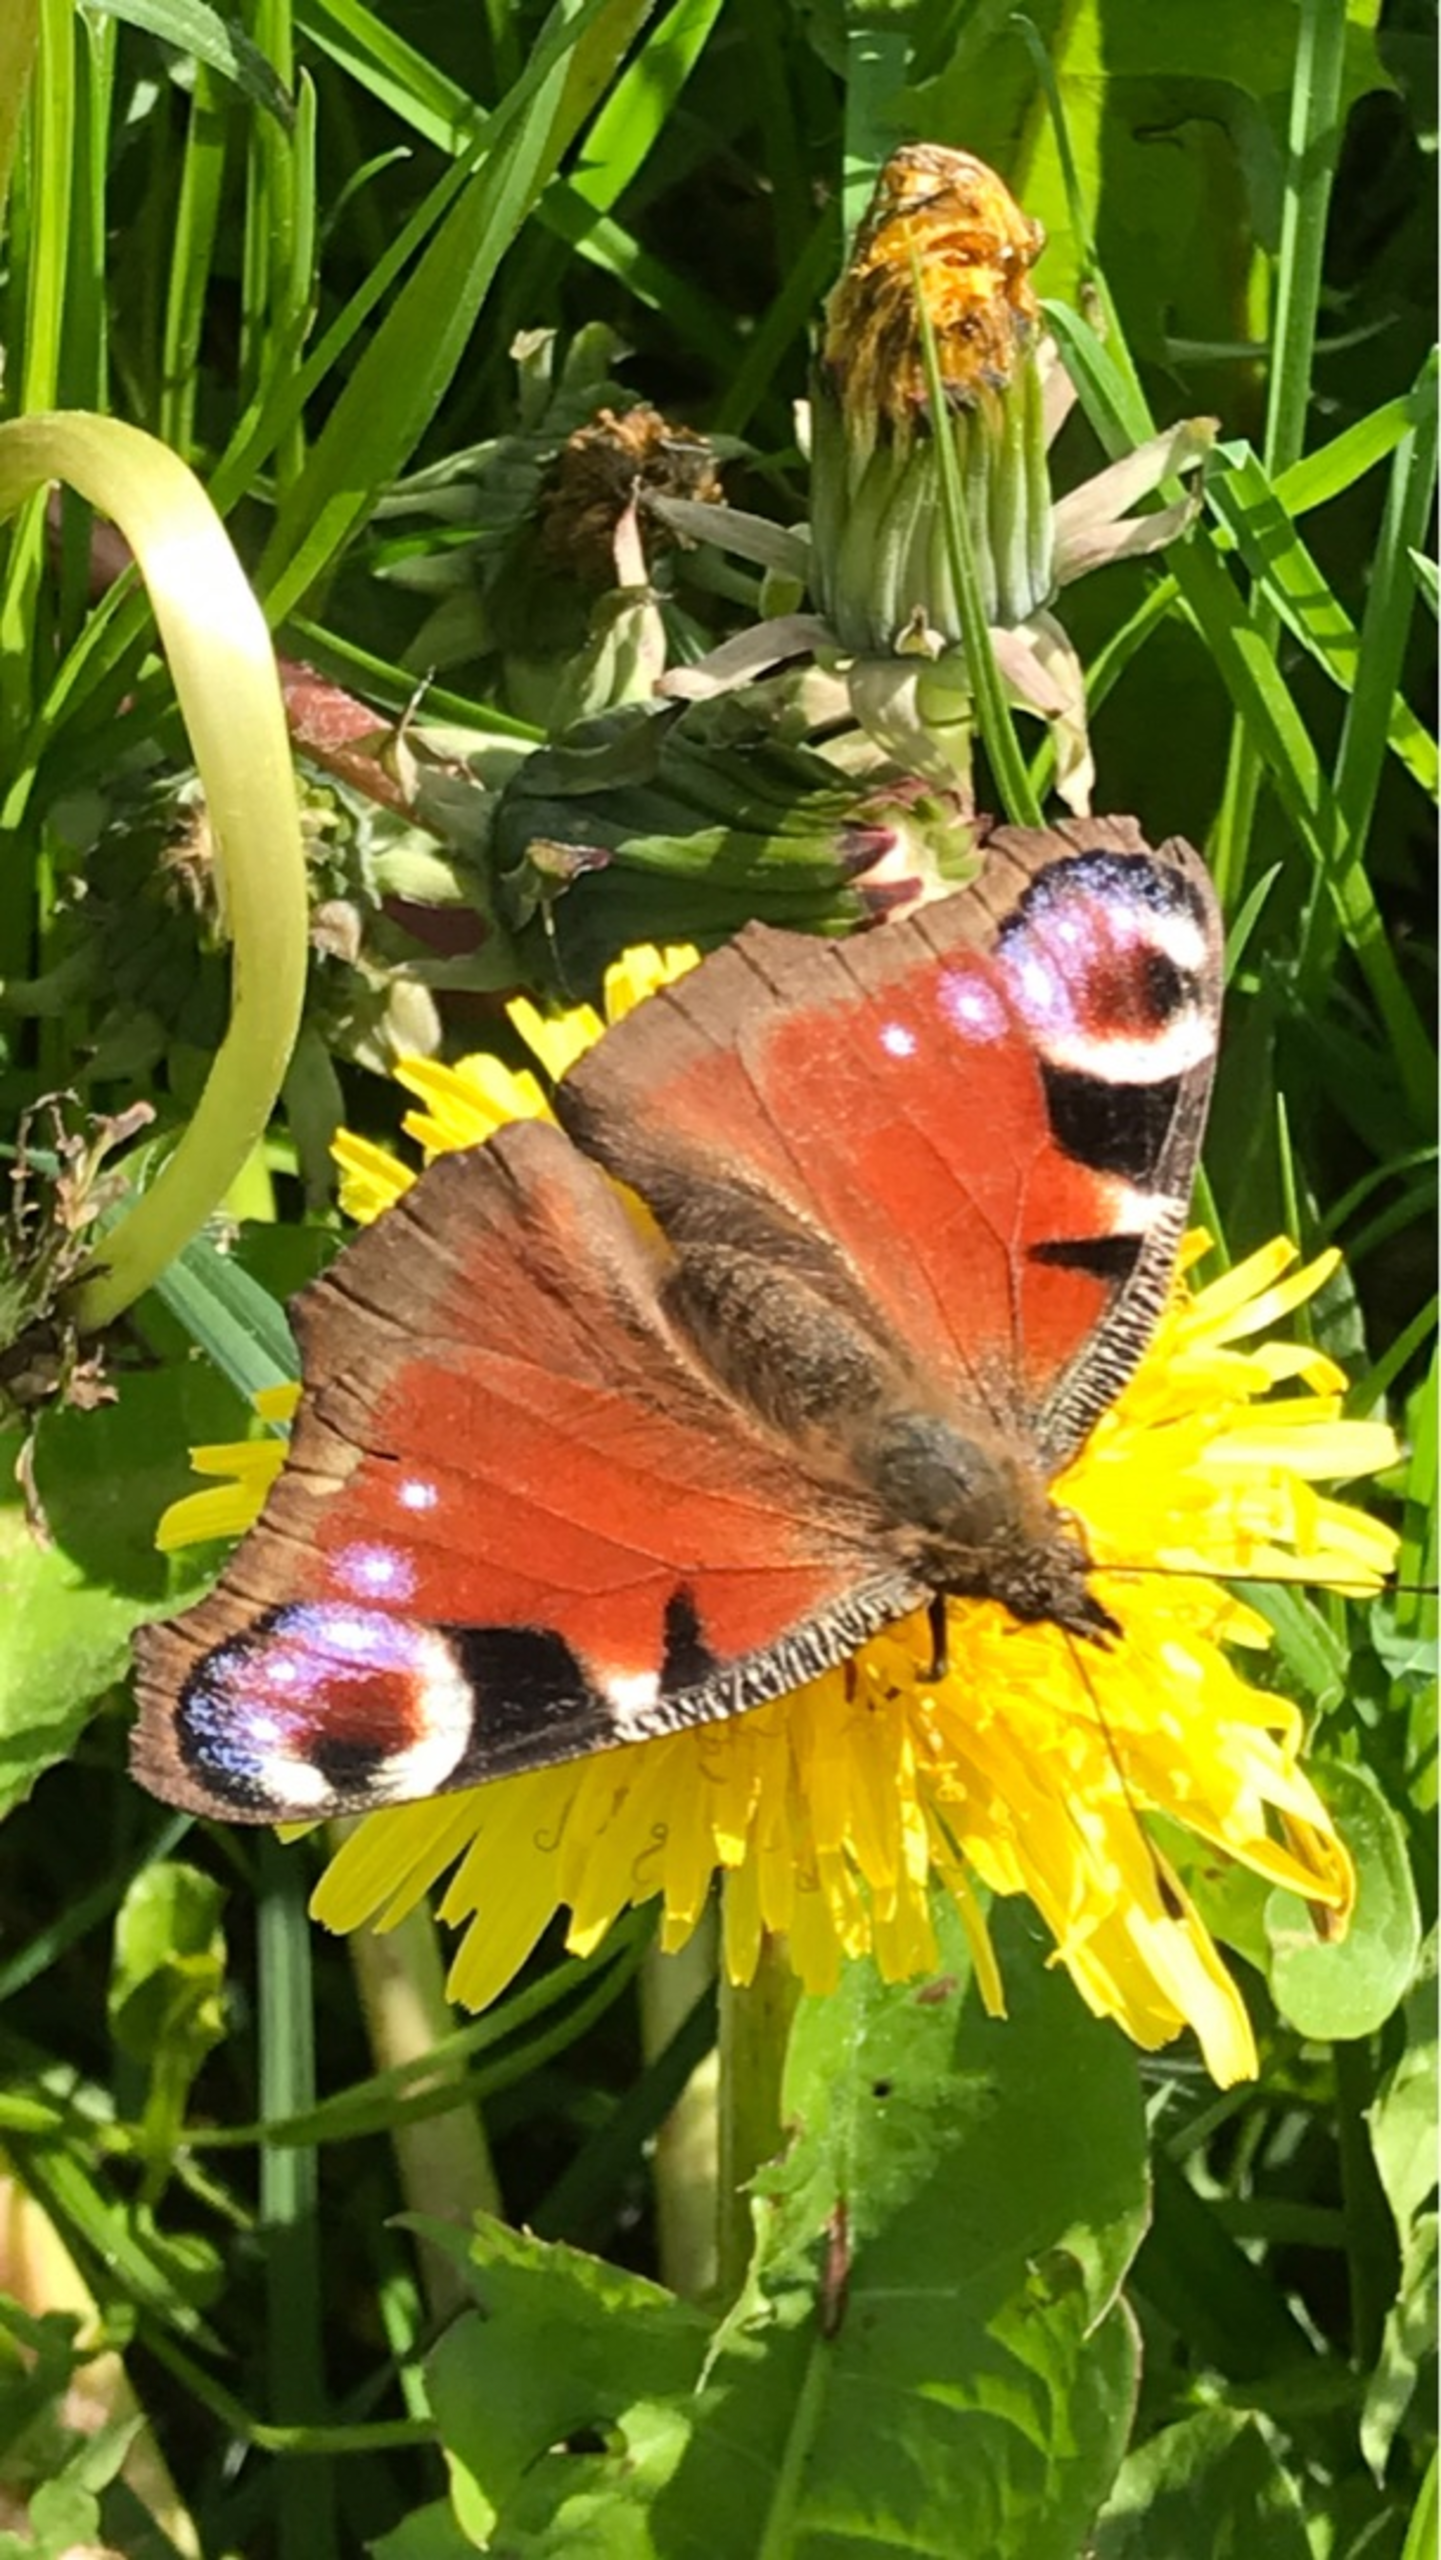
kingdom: Animalia
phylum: Arthropoda
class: Insecta
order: Lepidoptera
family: Nymphalidae
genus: Aglais
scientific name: Aglais io
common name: Dagpåfugleøje
